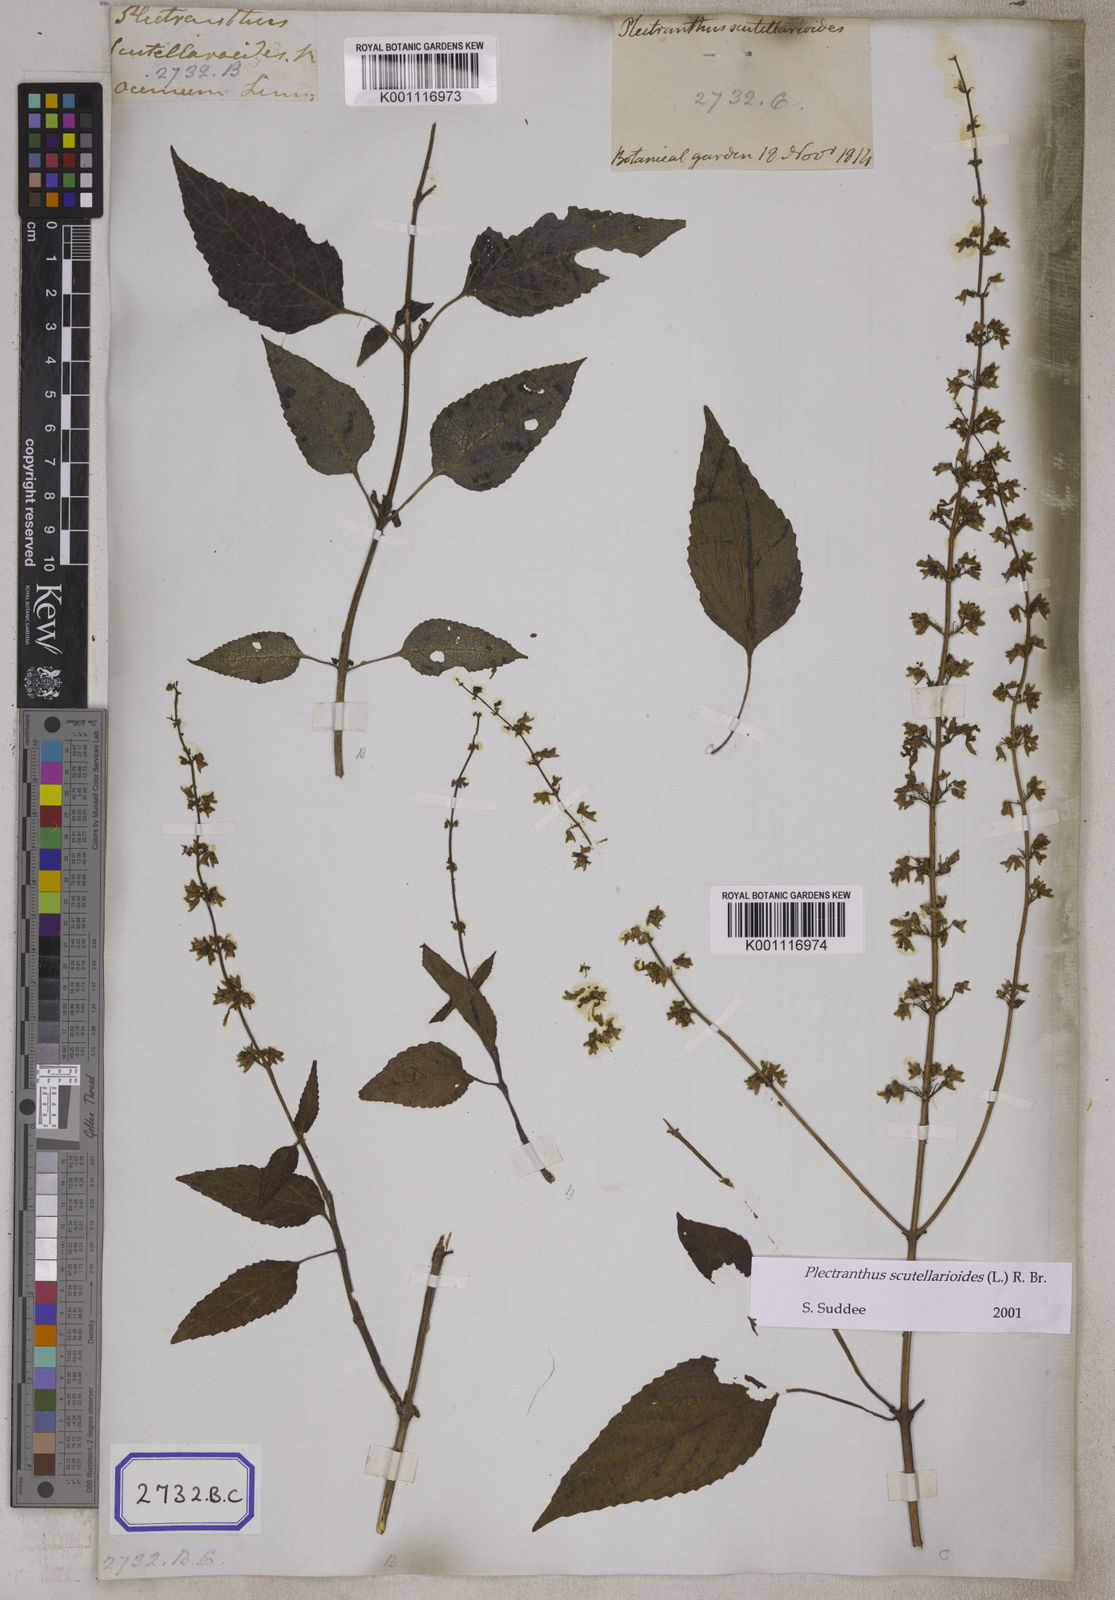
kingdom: Plantae
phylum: Tracheophyta
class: Magnoliopsida
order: Lamiales
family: Lamiaceae
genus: Coleus
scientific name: Coleus scutellarioides
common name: Coleus
